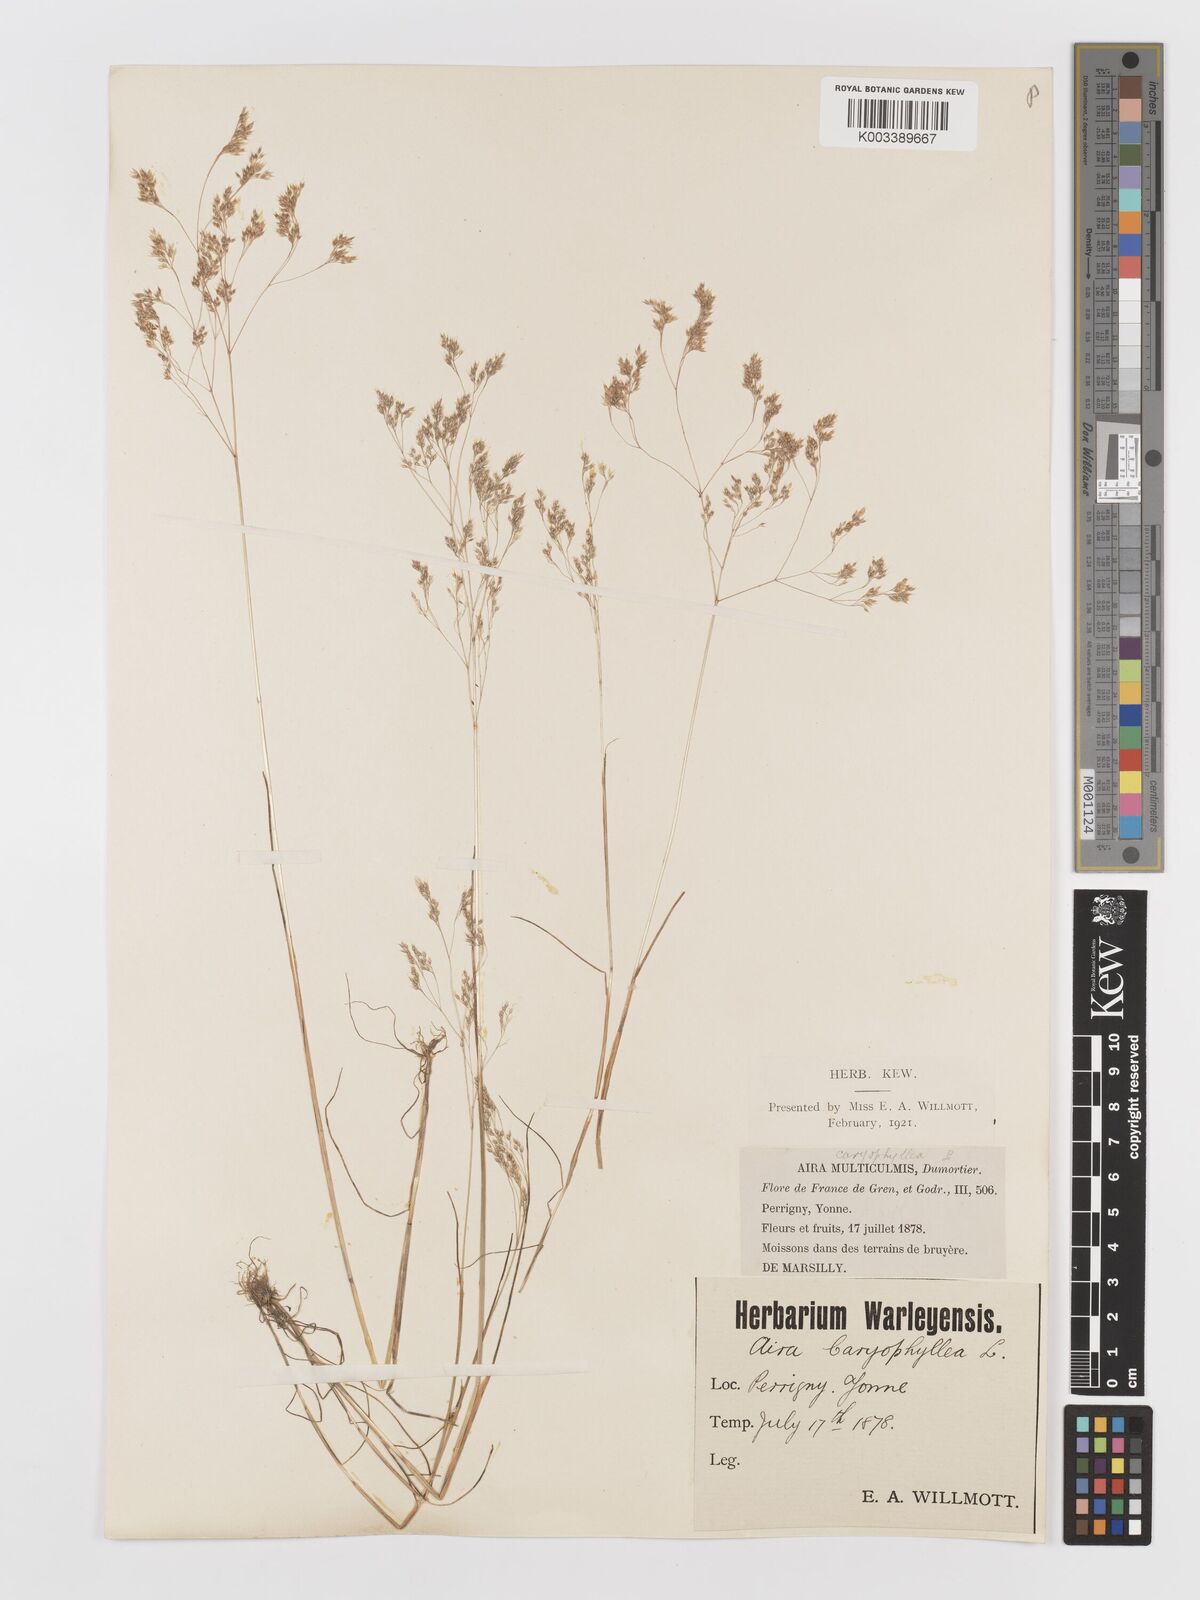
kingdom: Plantae
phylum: Tracheophyta
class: Liliopsida
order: Poales
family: Poaceae
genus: Aira
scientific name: Aira caryophyllea
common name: Silver hairgrass
